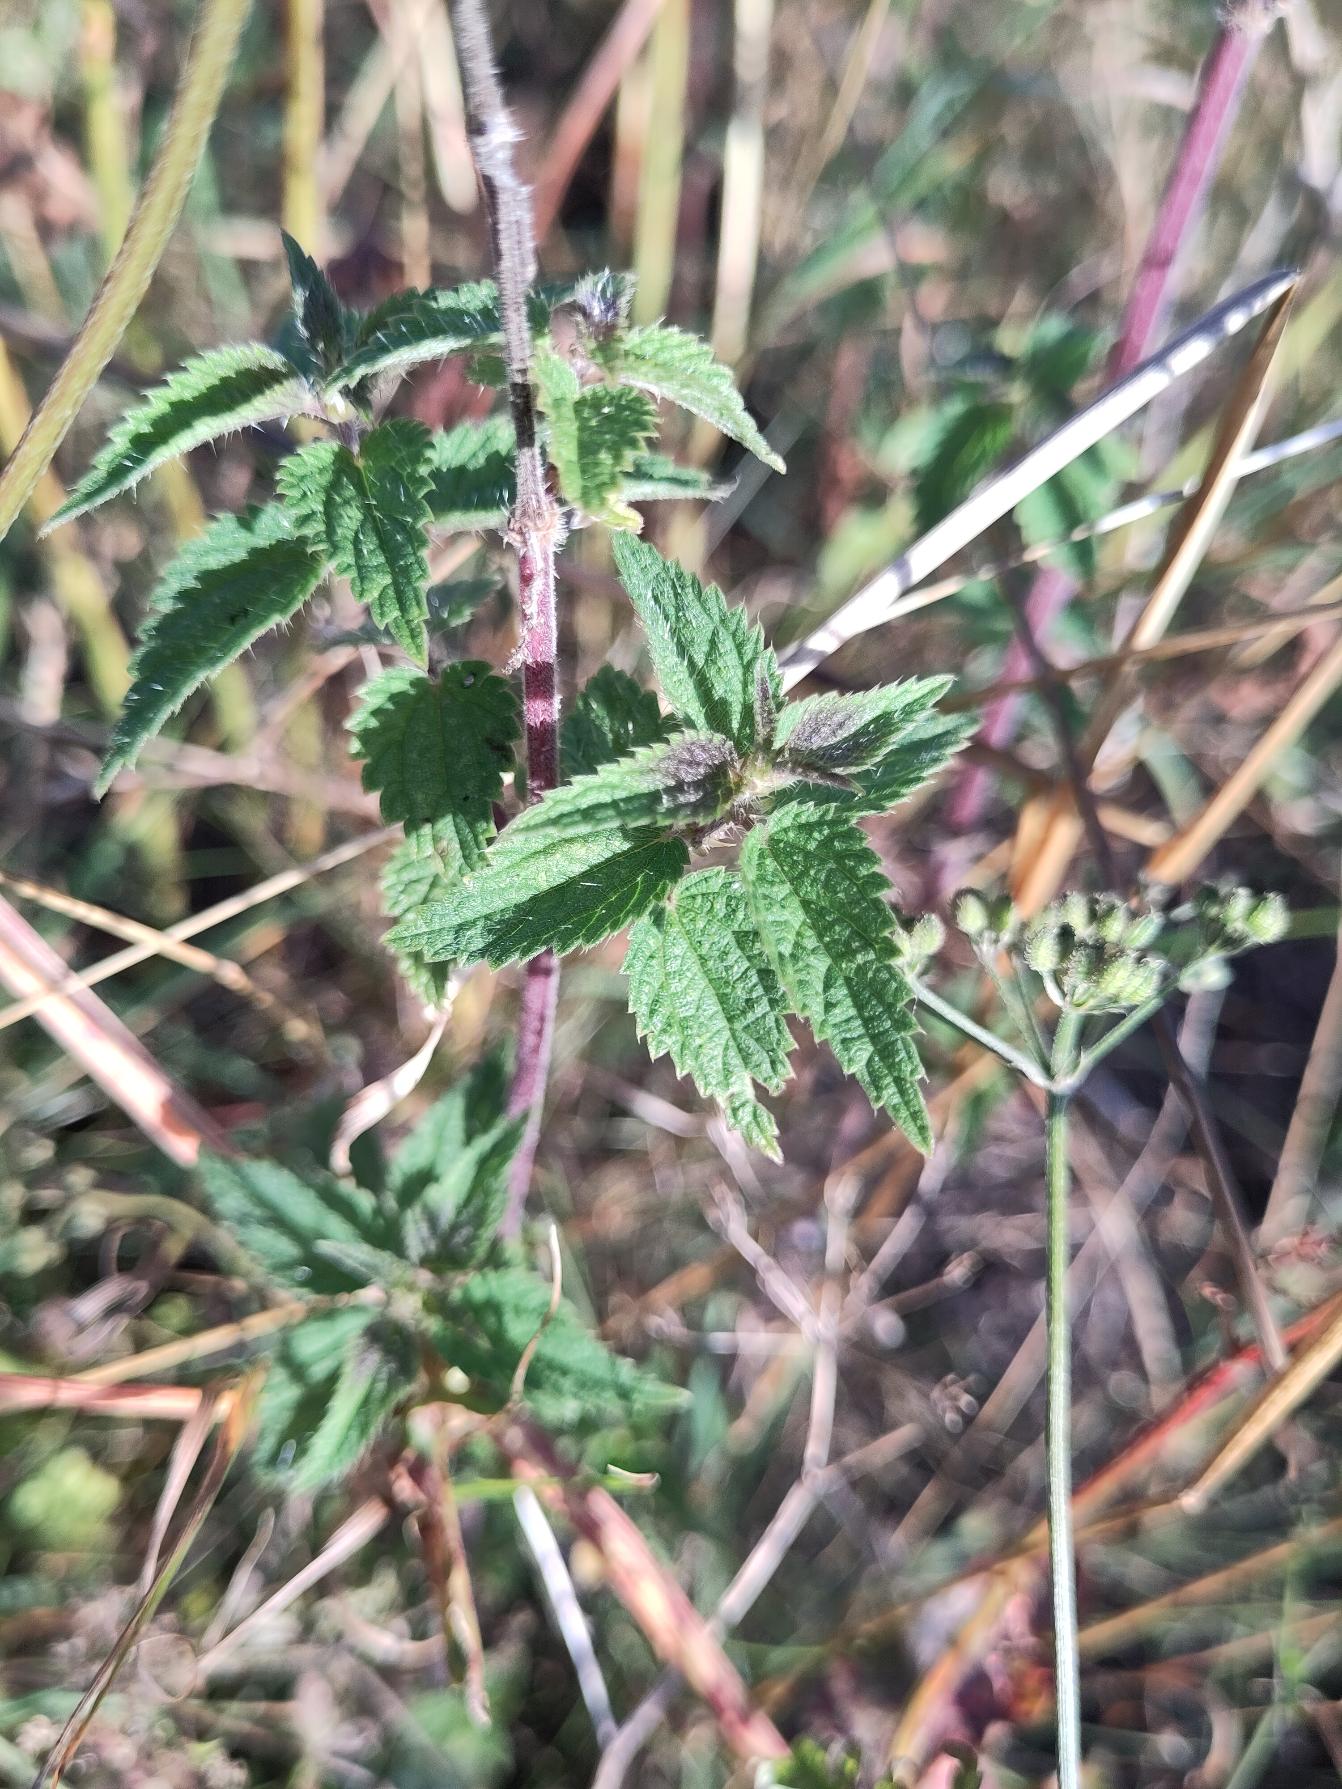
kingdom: Plantae
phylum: Tracheophyta
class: Magnoliopsida
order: Rosales
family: Urticaceae
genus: Urtica
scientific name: Urtica dioica
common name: Stor nælde
